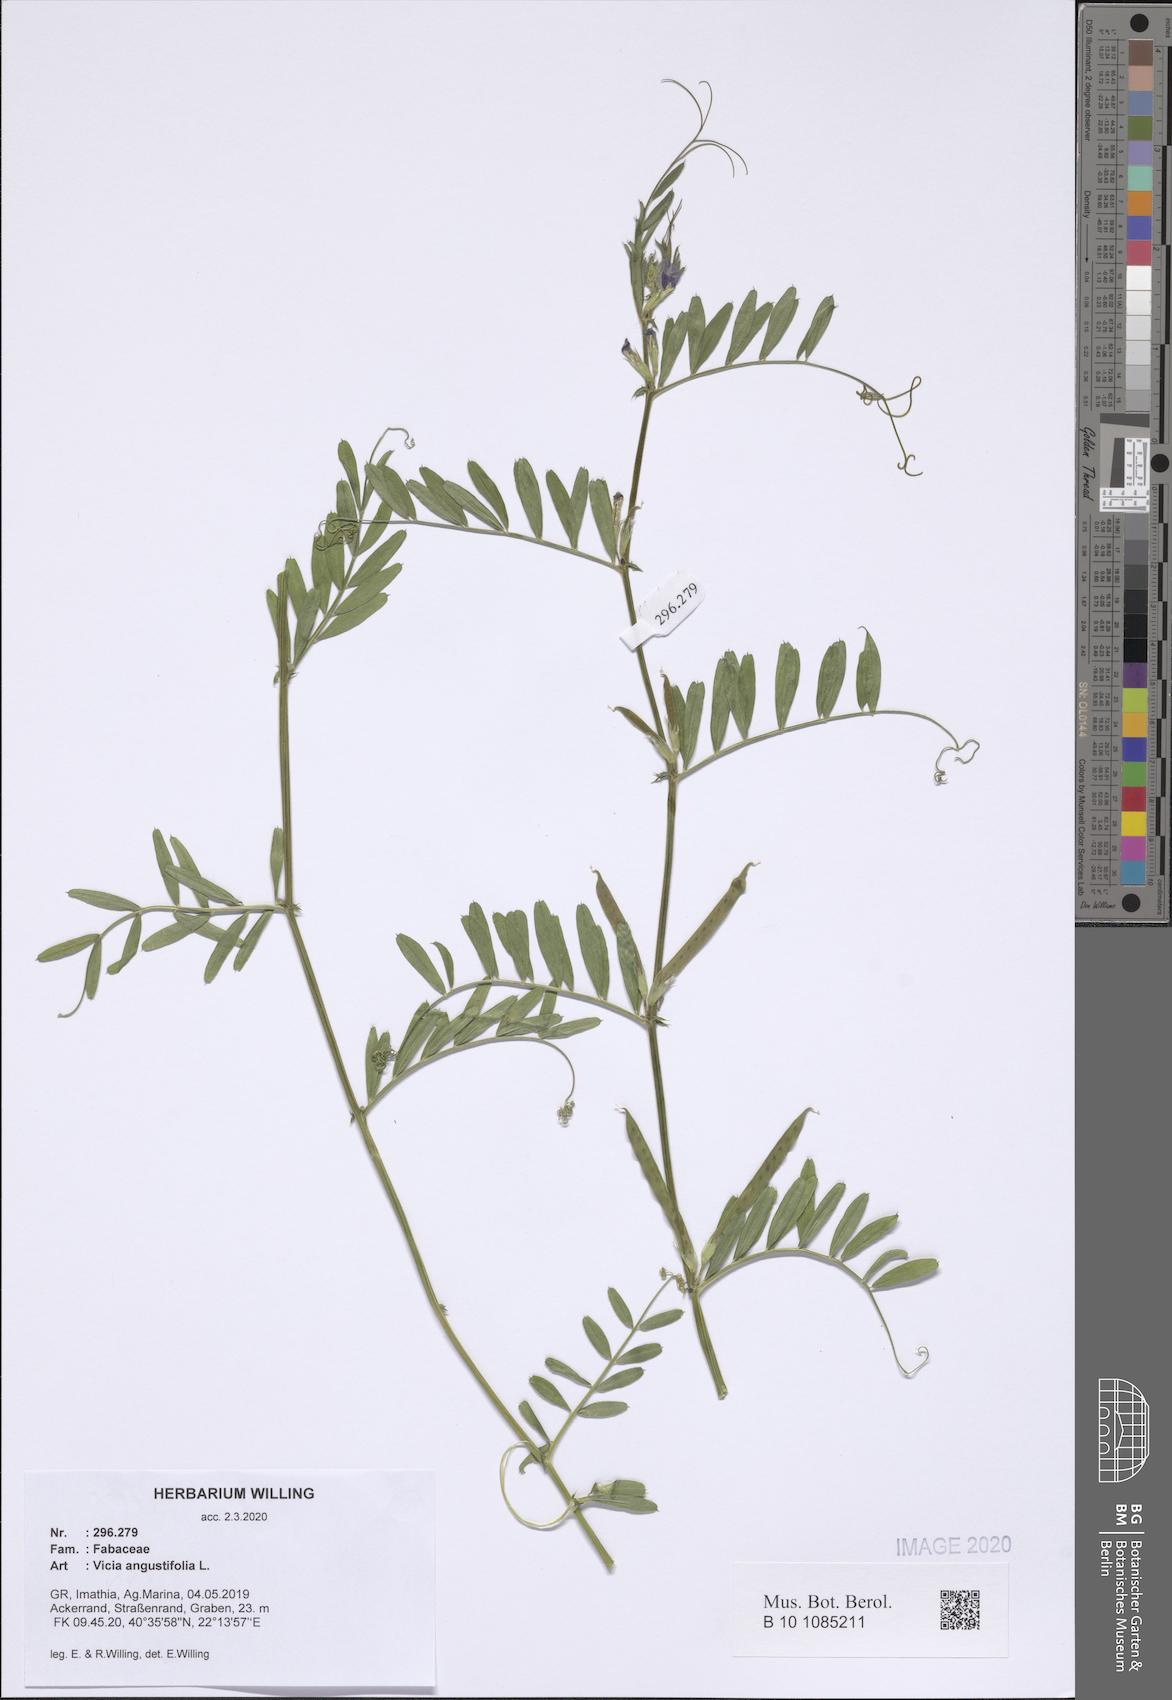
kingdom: Plantae
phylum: Tracheophyta
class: Magnoliopsida
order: Fabales
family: Fabaceae
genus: Vicia
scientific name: Vicia sativa
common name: Garden vetch
